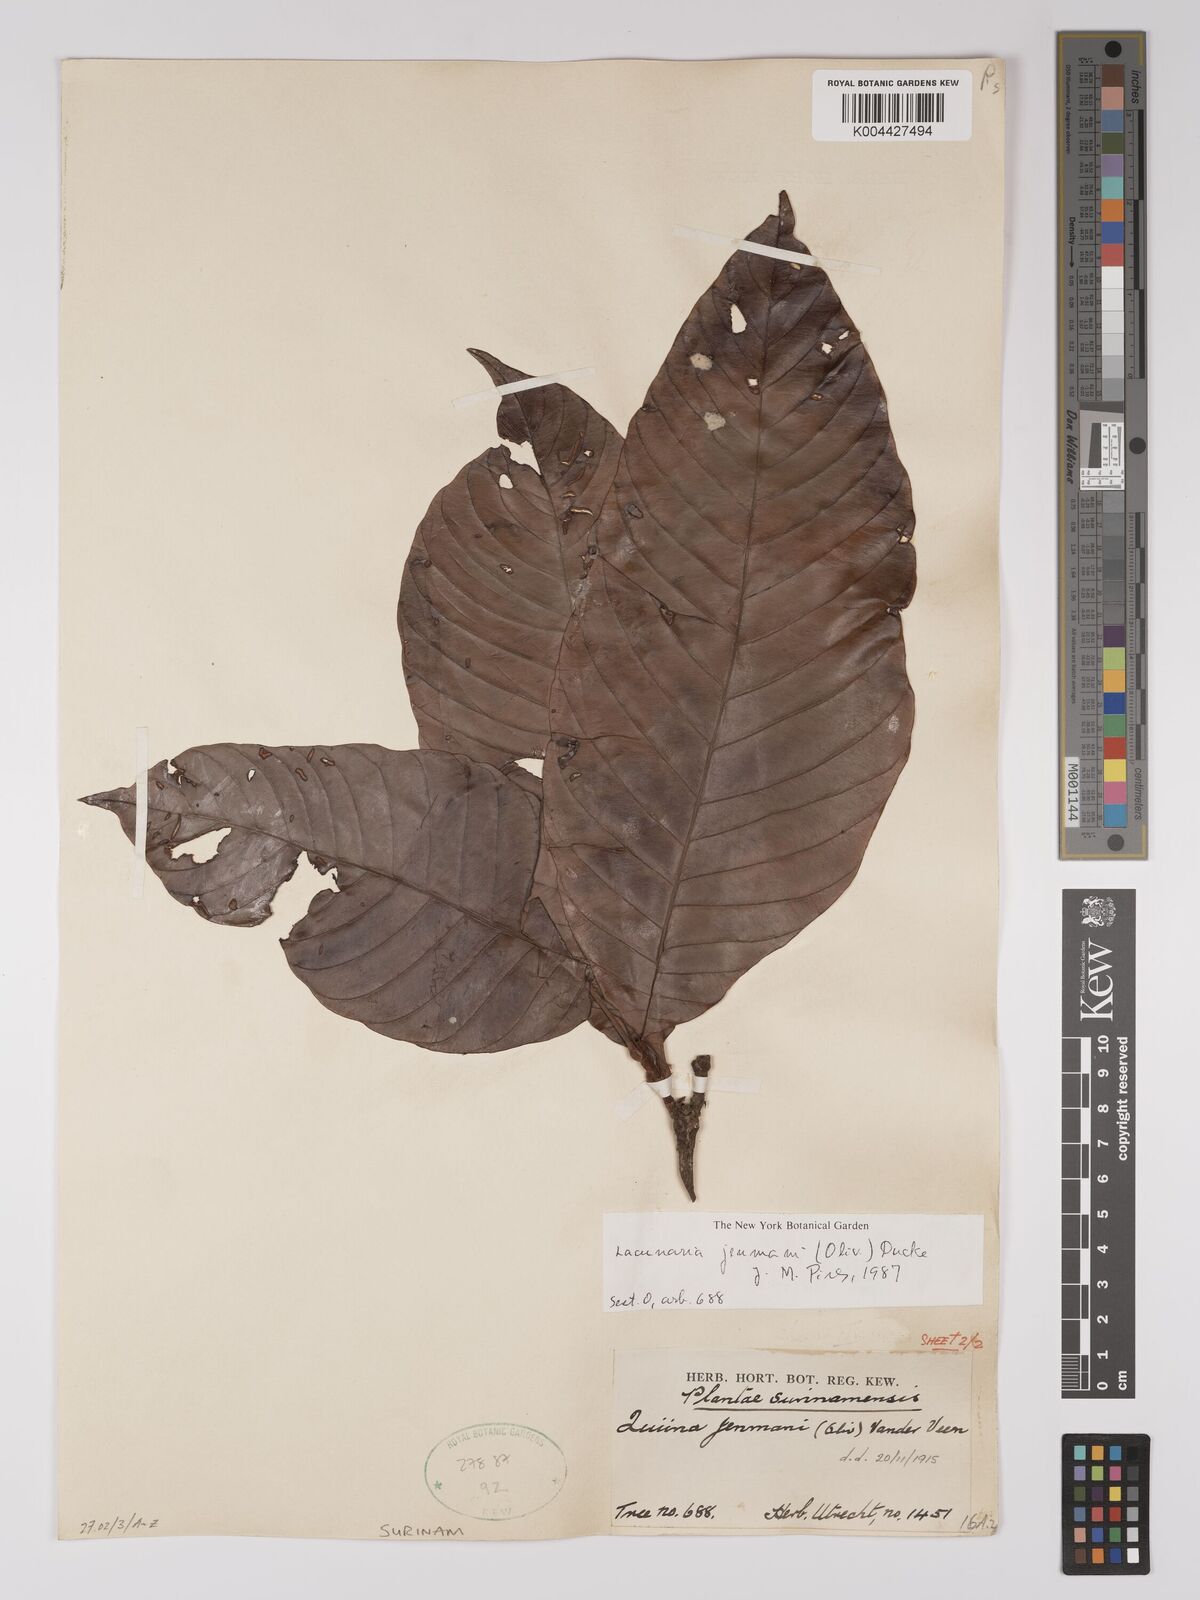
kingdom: Plantae
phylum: Tracheophyta
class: Magnoliopsida
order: Malpighiales
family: Quiinaceae
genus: Lacunaria
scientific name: Lacunaria jenmanii
